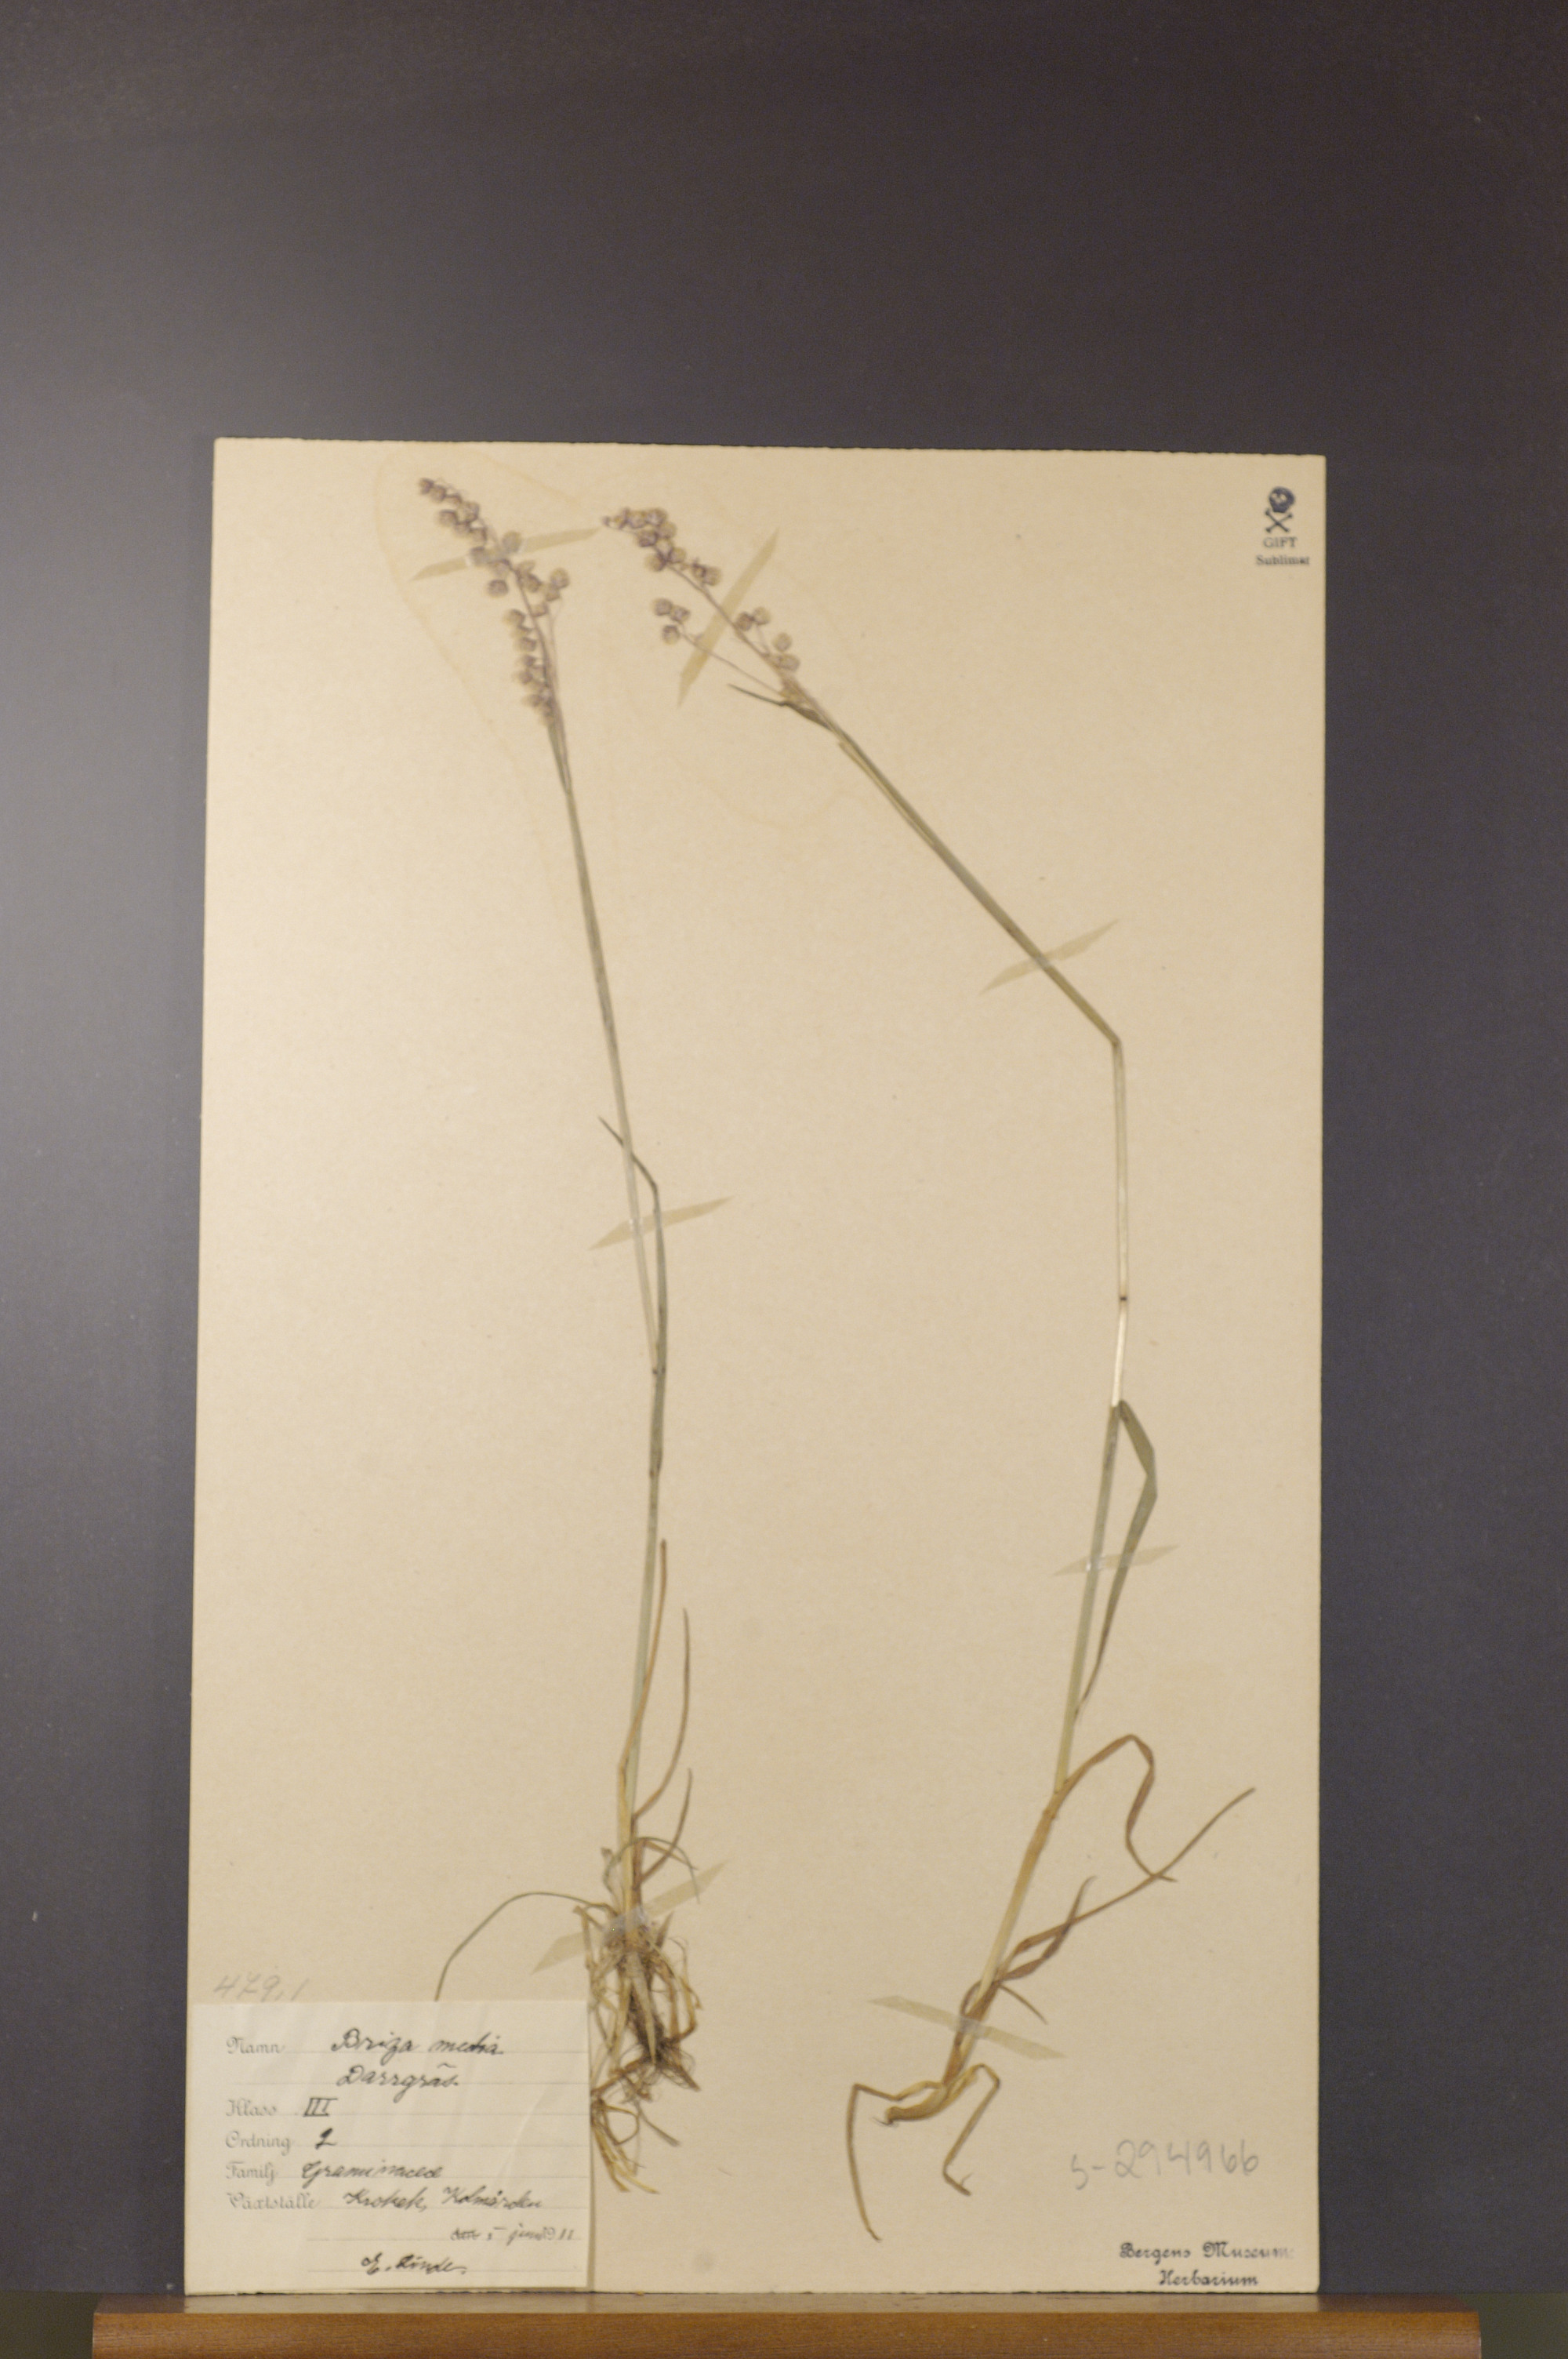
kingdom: Plantae
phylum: Tracheophyta
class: Liliopsida
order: Poales
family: Poaceae
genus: Briza
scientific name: Briza media
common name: Quaking grass
